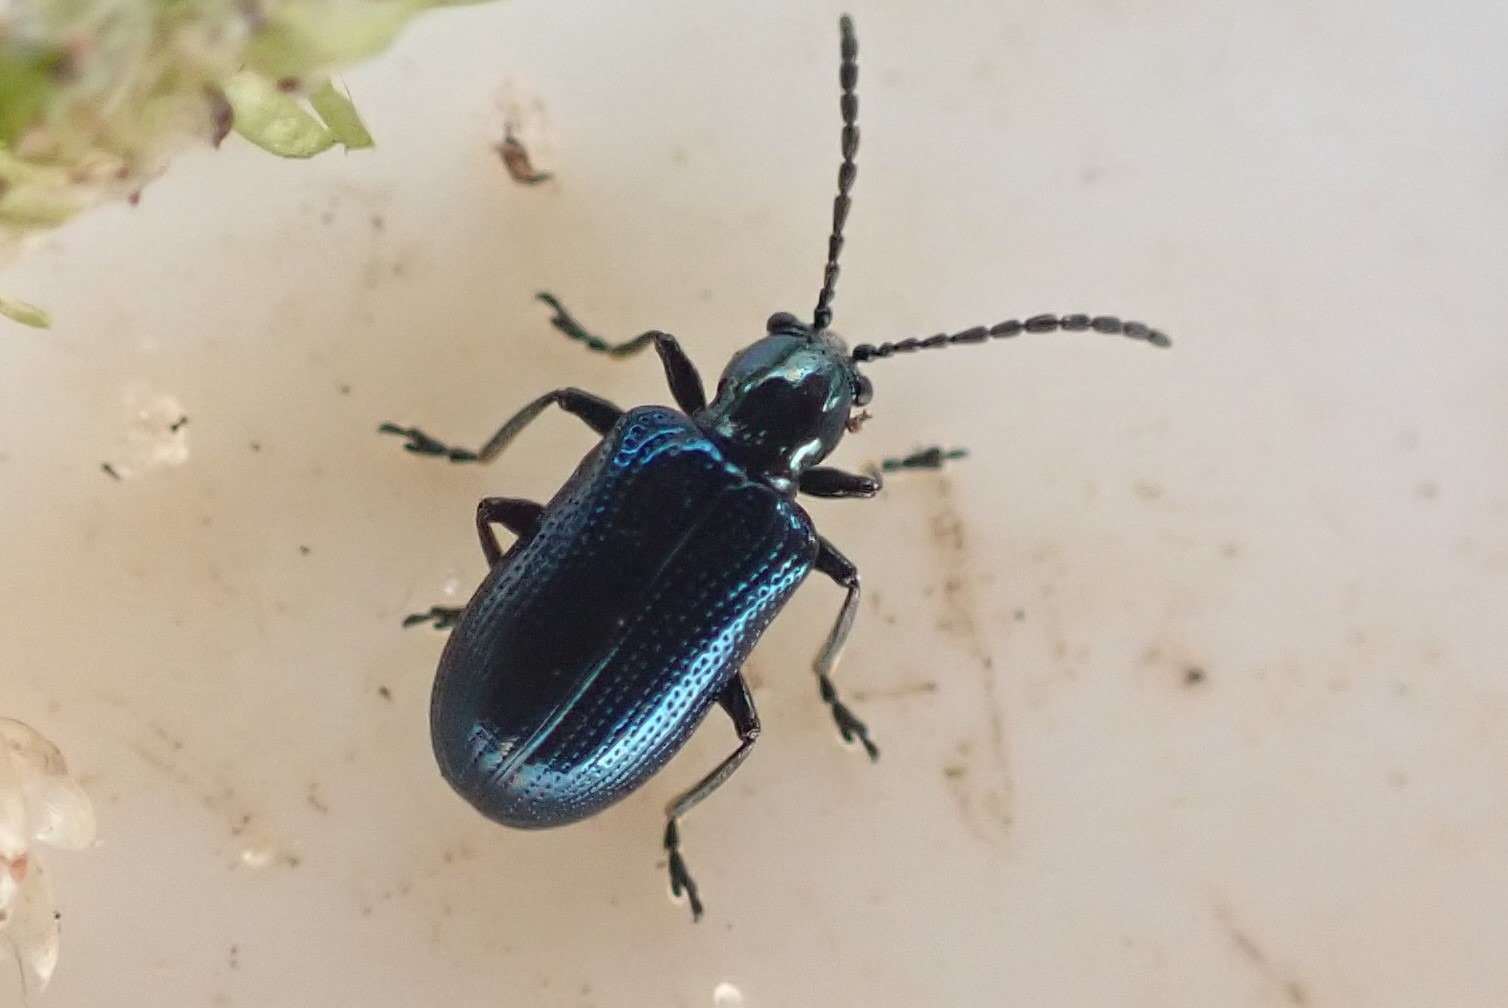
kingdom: Animalia
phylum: Arthropoda
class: Insecta
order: Coleoptera
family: Chrysomelidae
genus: Oulema
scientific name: Oulema gallaeciana
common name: Sortblå kornbladbille
